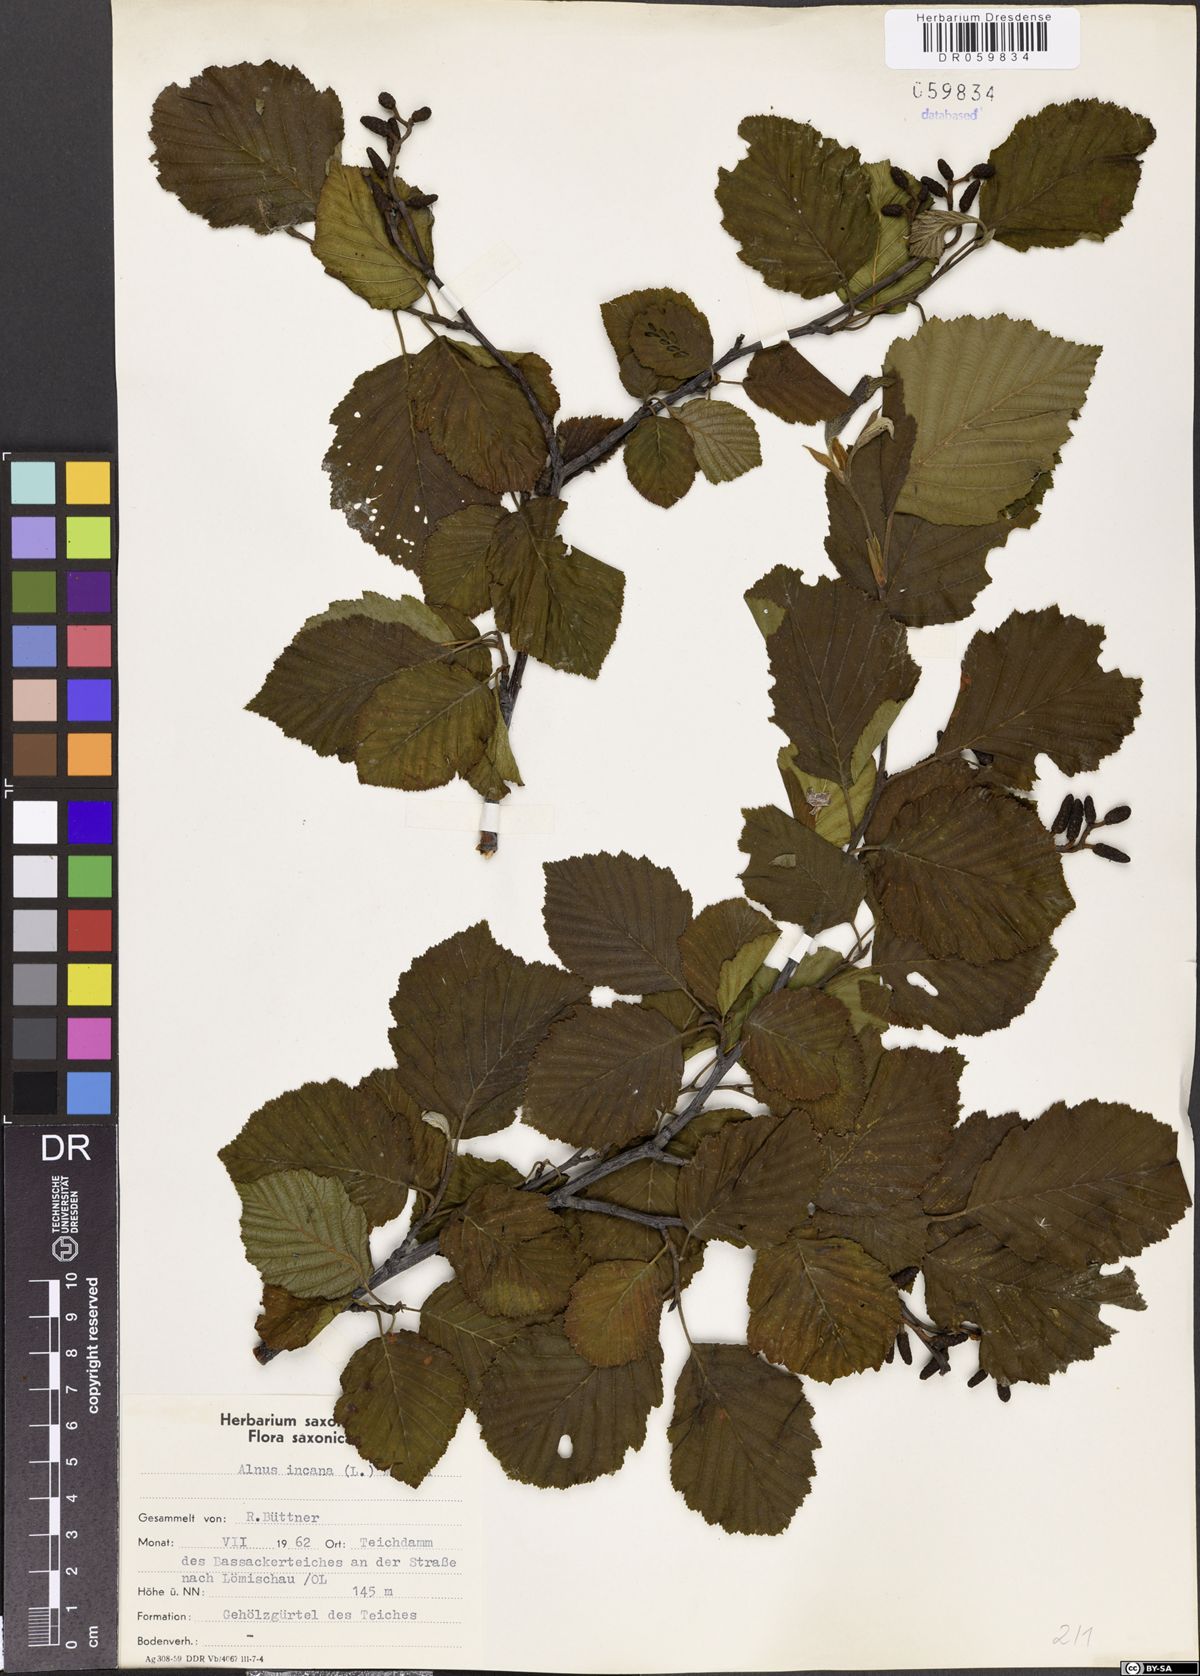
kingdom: Plantae
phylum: Tracheophyta
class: Magnoliopsida
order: Fagales
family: Betulaceae
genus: Alnus
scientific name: Alnus incana
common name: Grey alder
